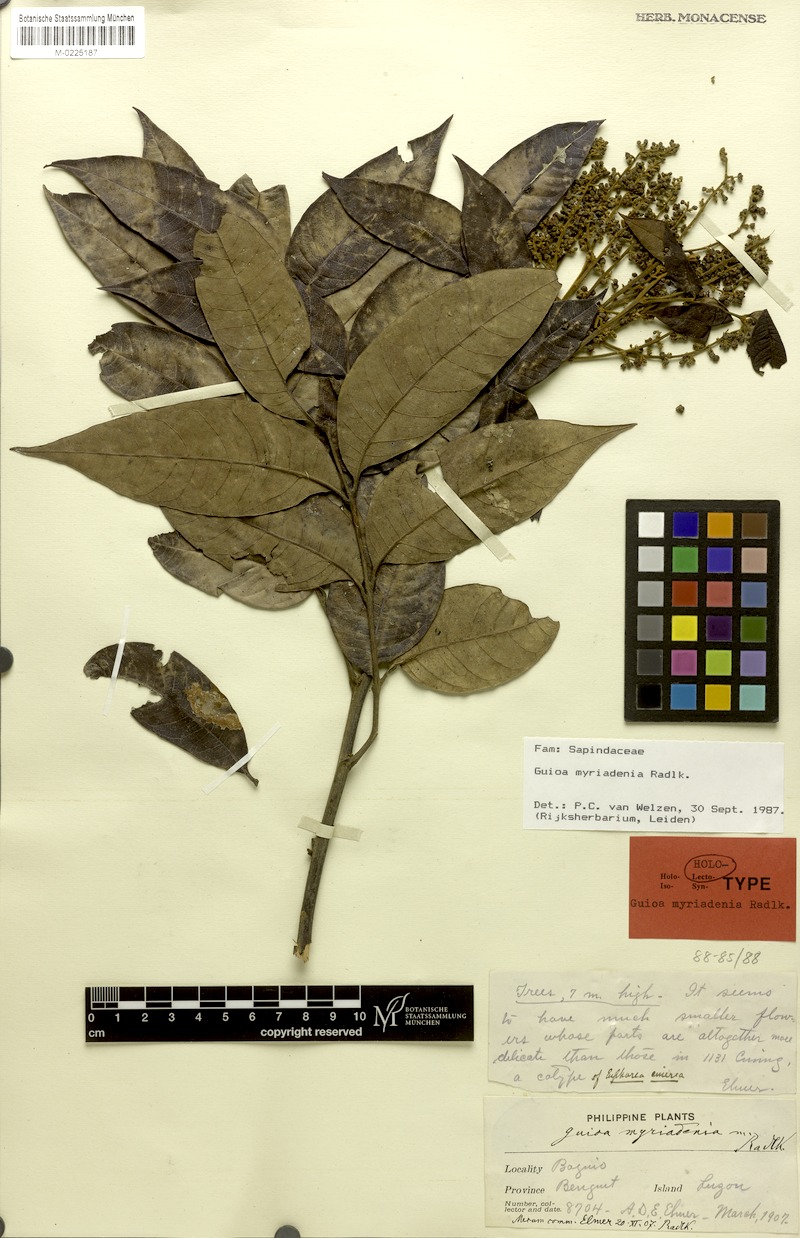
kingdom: Plantae
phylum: Tracheophyta
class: Magnoliopsida
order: Sapindales
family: Sapindaceae
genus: Guioa
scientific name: Guioa myriadenia
